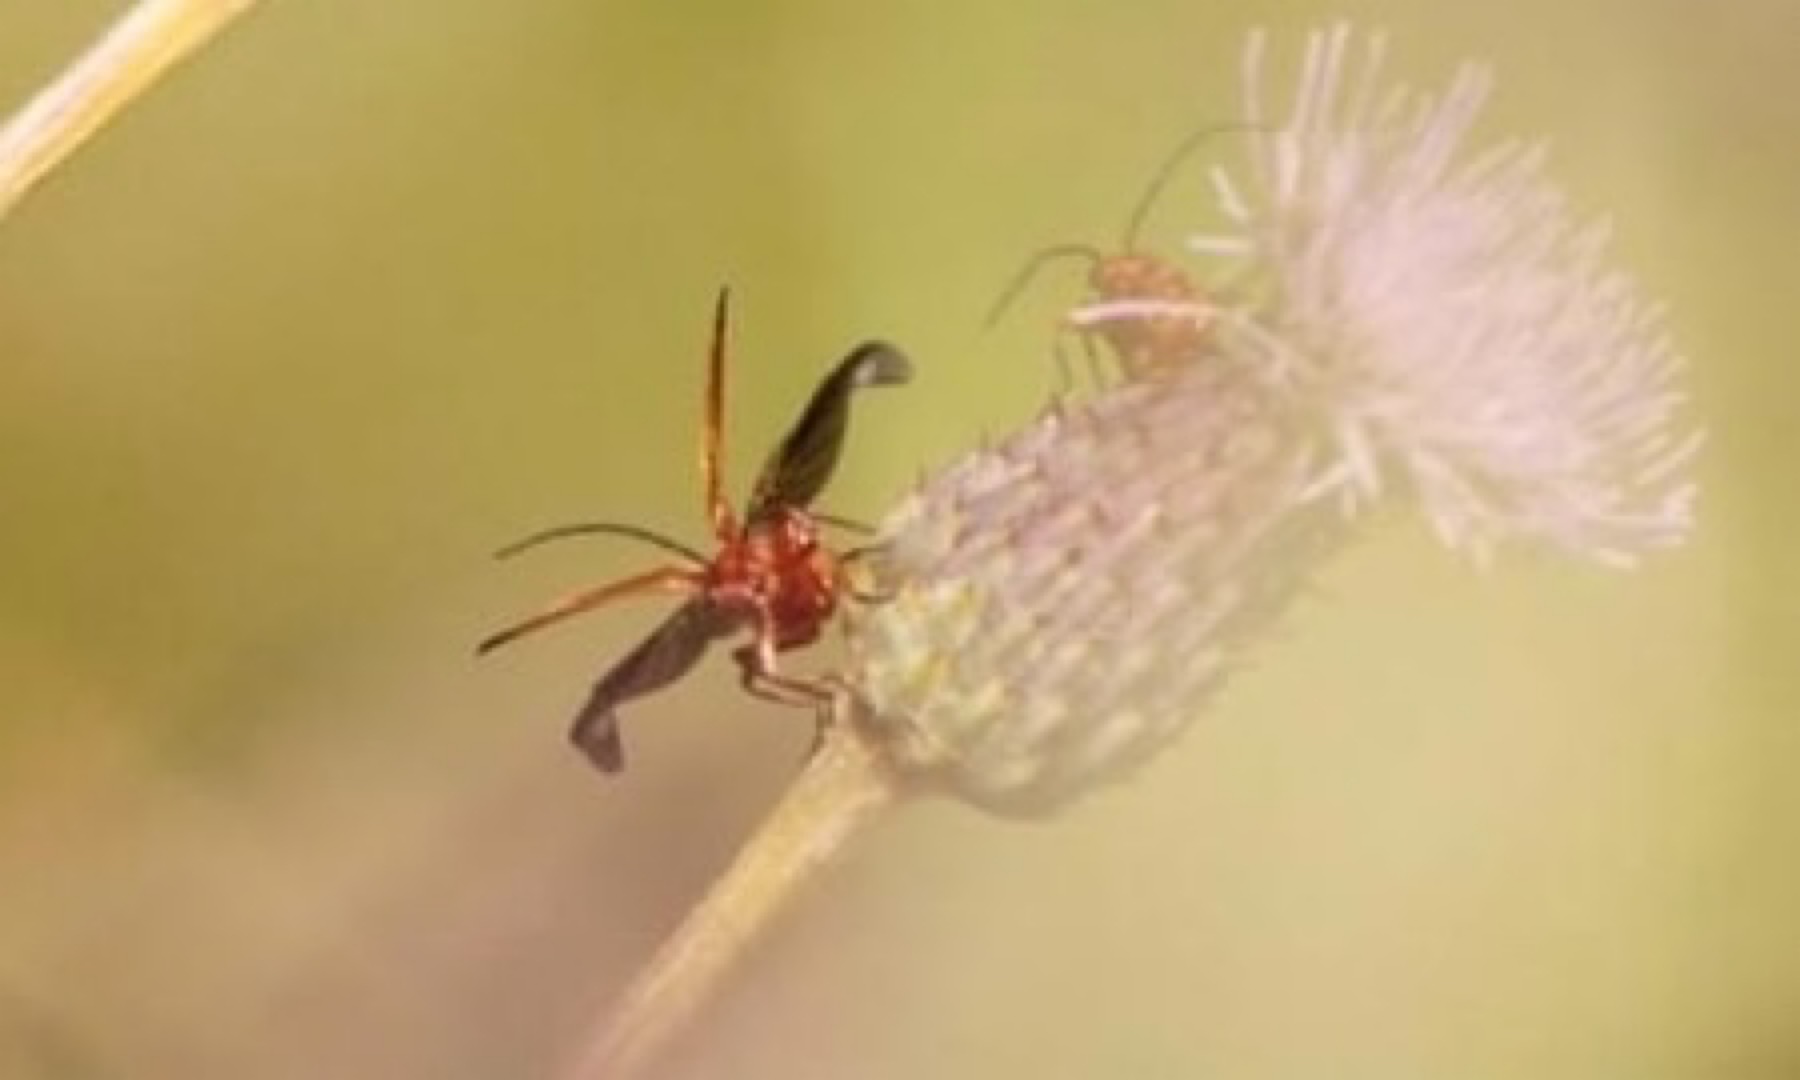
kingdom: Animalia
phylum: Arthropoda
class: Insecta
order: Coleoptera
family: Cantharidae
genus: Rhagonycha
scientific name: Rhagonycha fulva
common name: Præstebille
